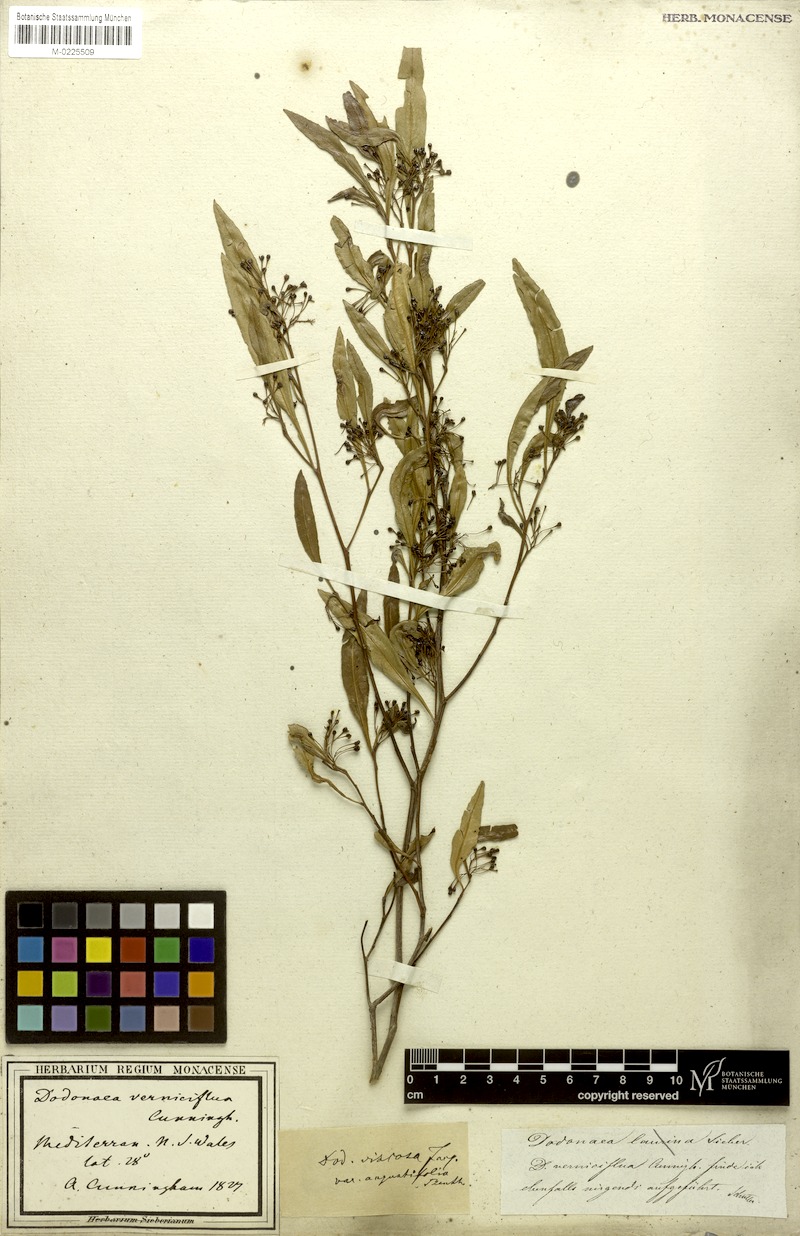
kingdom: Plantae
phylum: Tracheophyta
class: Magnoliopsida
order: Sapindales
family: Sapindaceae
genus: Dodonaea
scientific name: Dodonaea viscosa
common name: Hopbush
